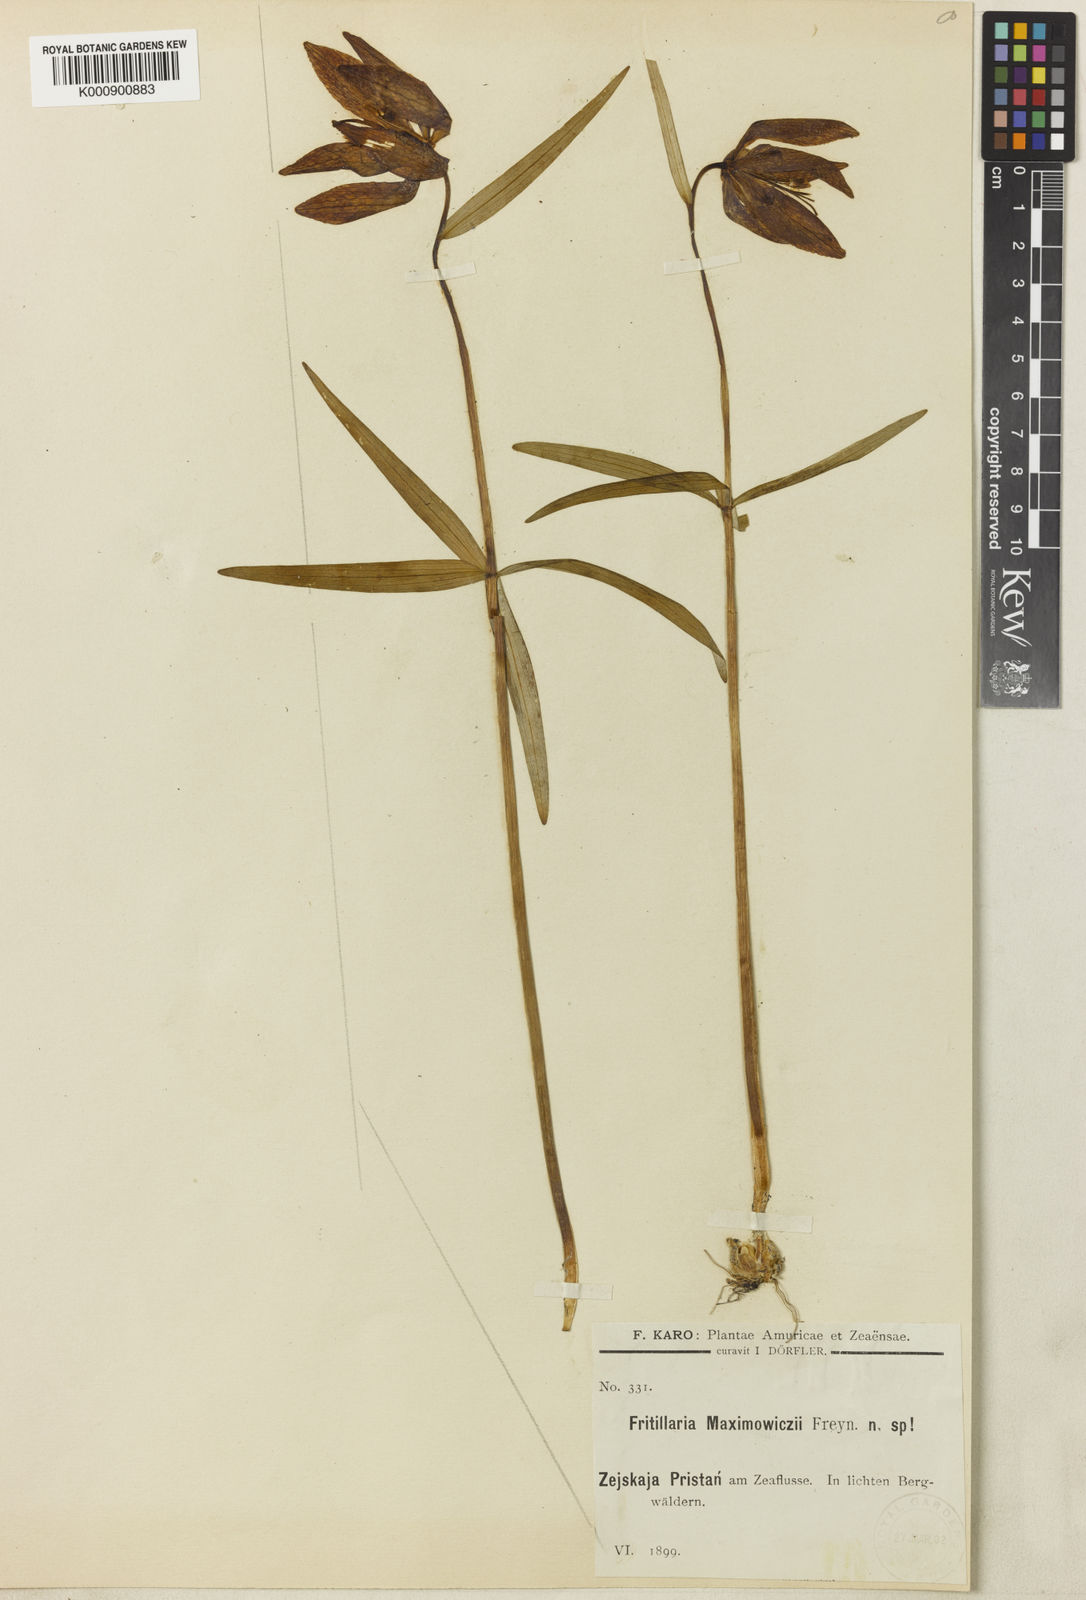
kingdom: Plantae
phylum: Tracheophyta
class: Liliopsida
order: Liliales
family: Liliaceae
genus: Fritillaria
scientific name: Fritillaria maximowiczii
